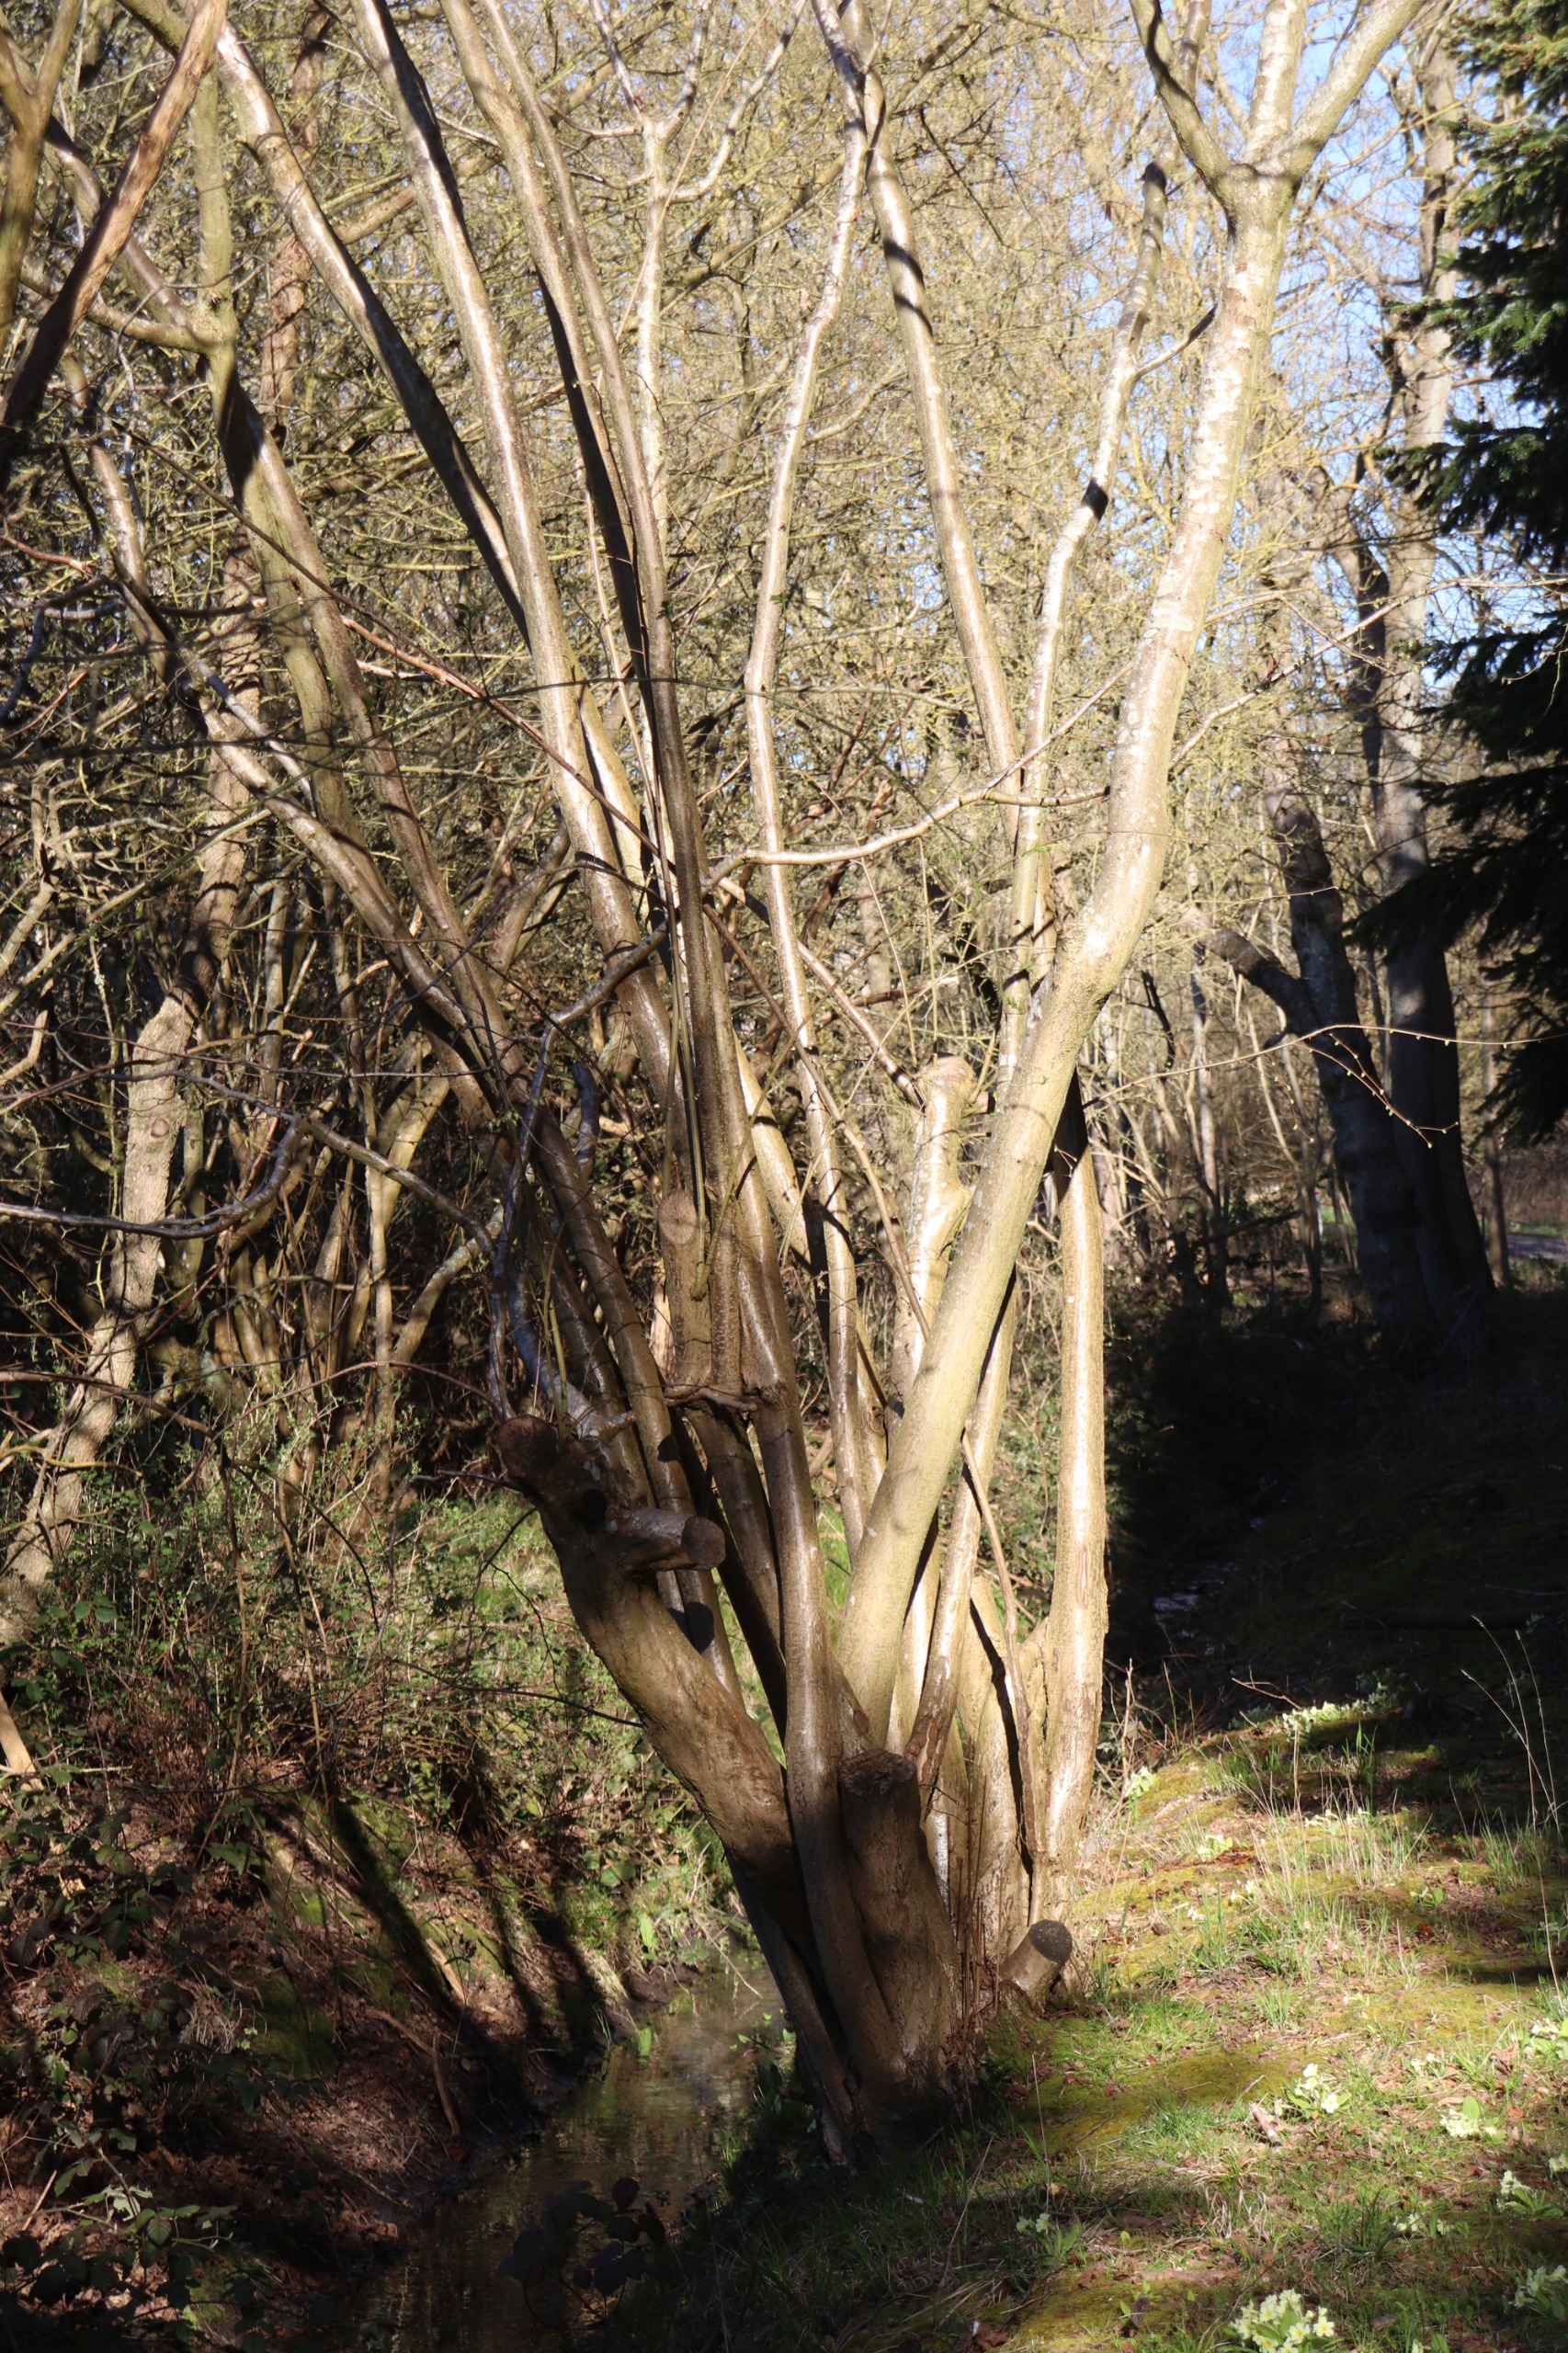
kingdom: Plantae
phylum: Tracheophyta
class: Magnoliopsida
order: Fagales
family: Betulaceae
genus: Corylus
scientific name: Corylus avellana
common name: Hassel
